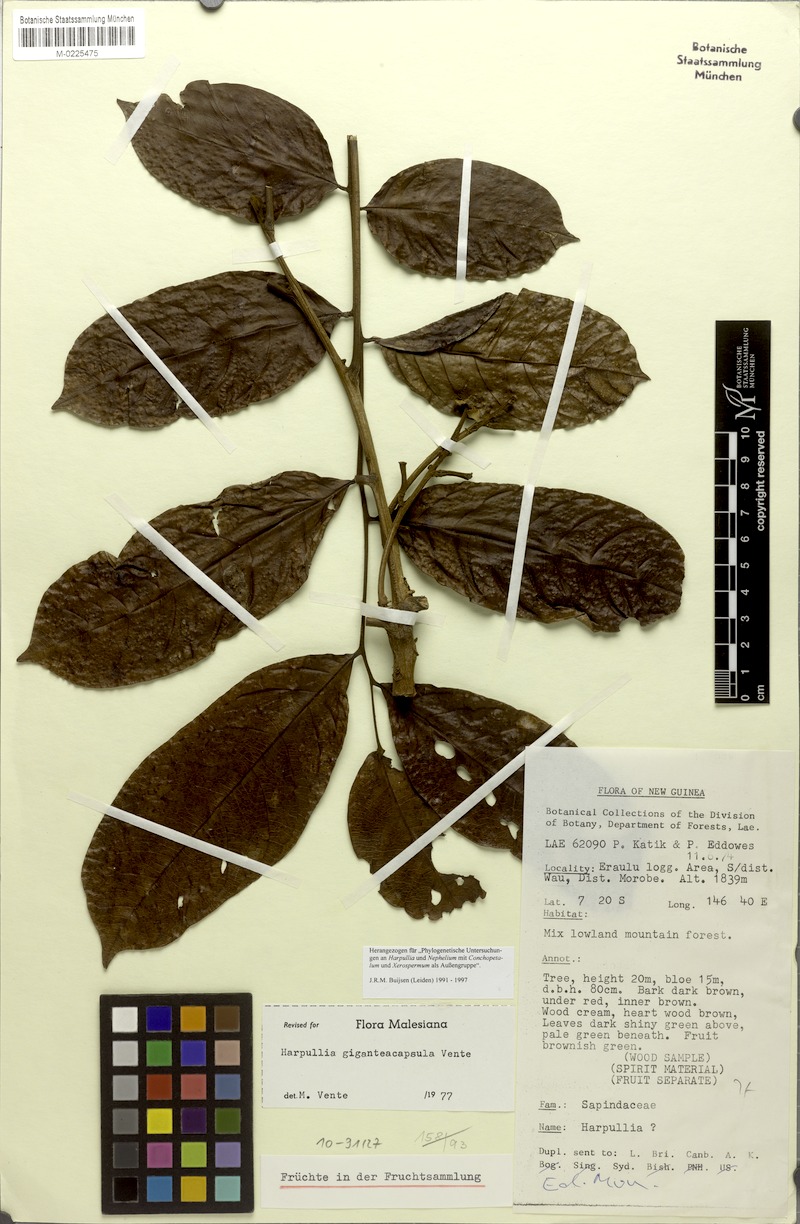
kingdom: Plantae
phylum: Tracheophyta
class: Magnoliopsida
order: Sapindales
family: Sapindaceae
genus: Harpullia
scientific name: Harpullia giganteacapsula
